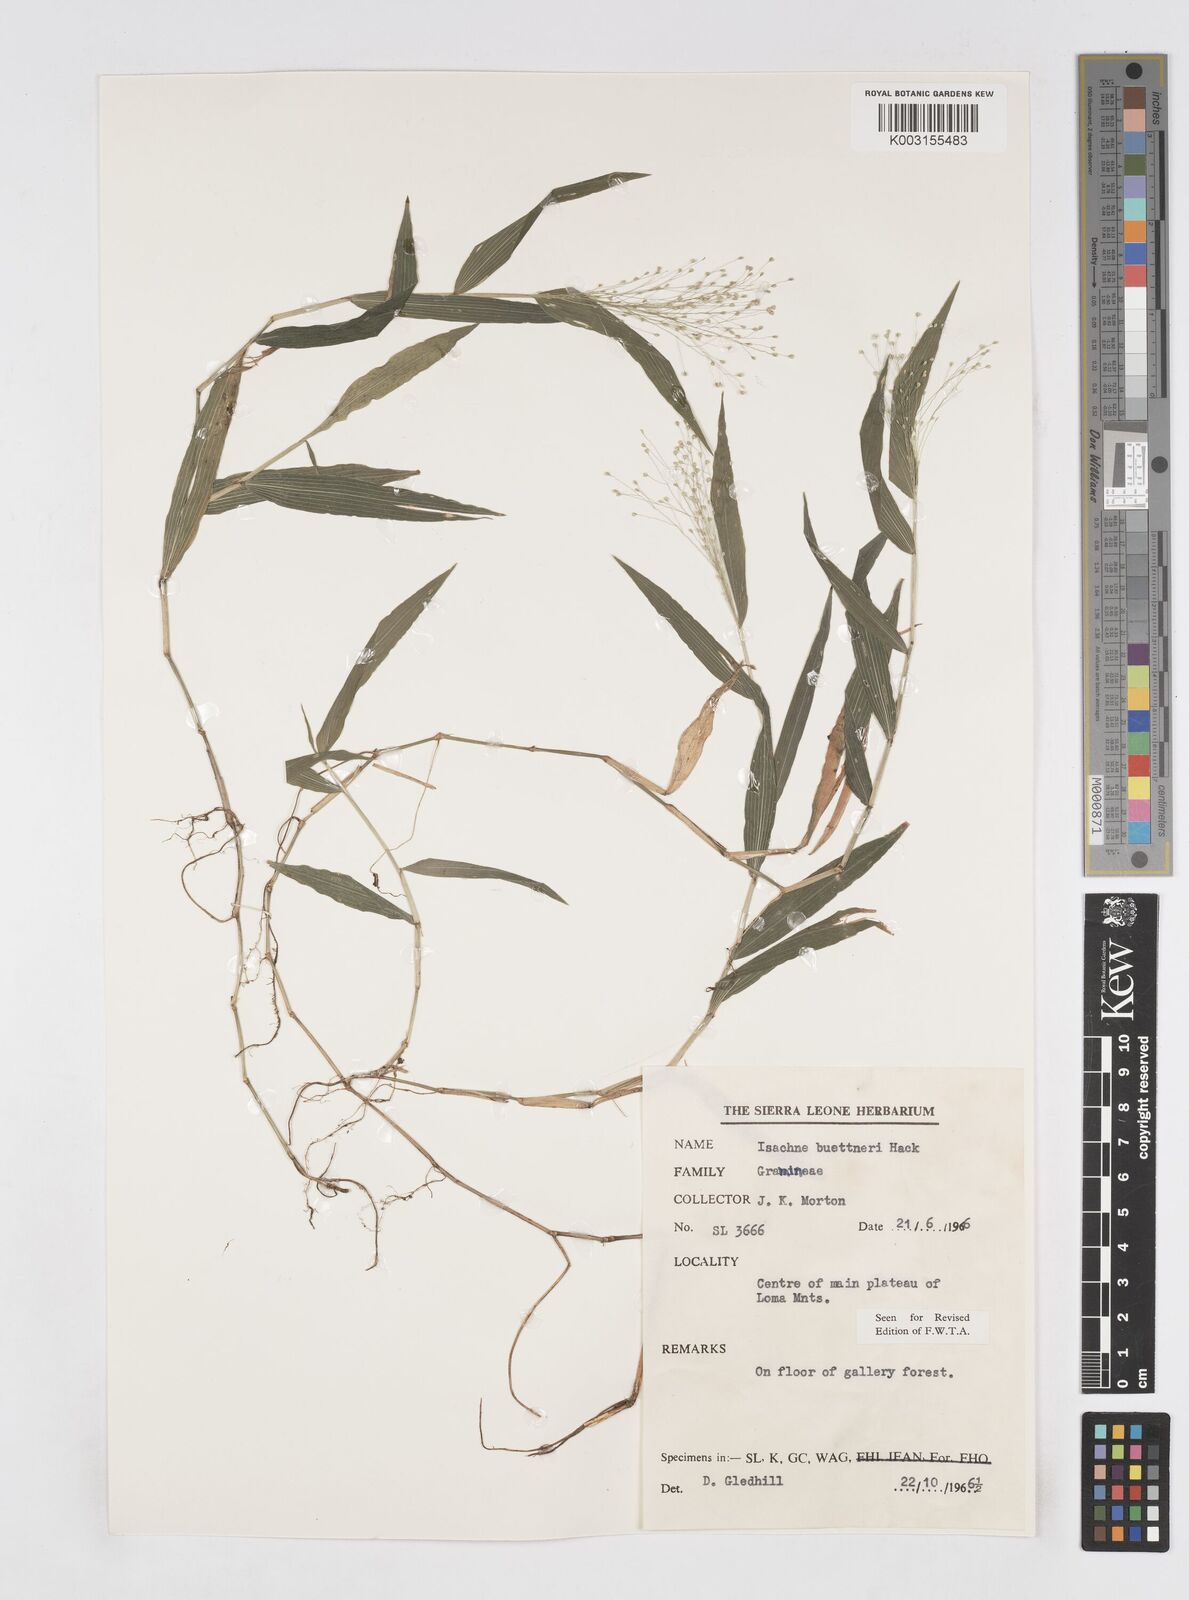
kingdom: Plantae
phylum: Tracheophyta
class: Liliopsida
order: Poales
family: Poaceae
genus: Isachne
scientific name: Isachne albens
